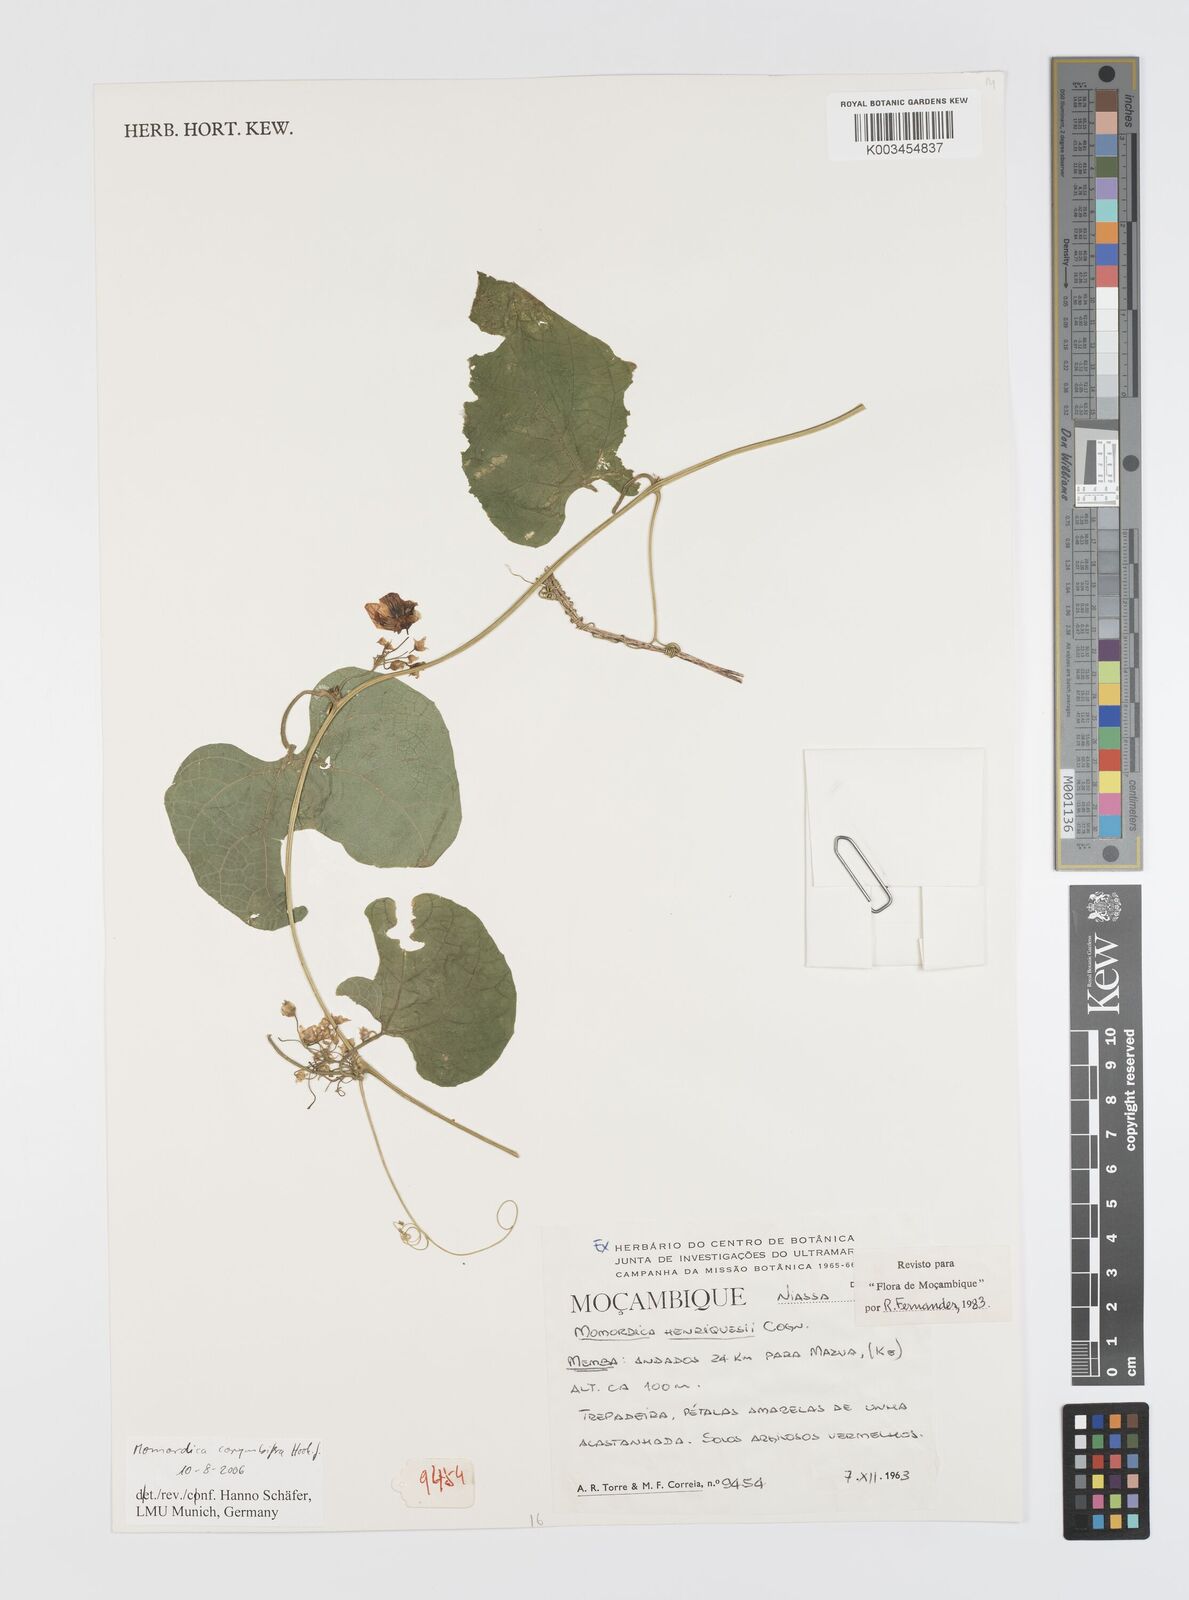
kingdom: Plantae
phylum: Tracheophyta
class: Magnoliopsida
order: Cucurbitales
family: Cucurbitaceae
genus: Momordica
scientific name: Momordica corymbifera
